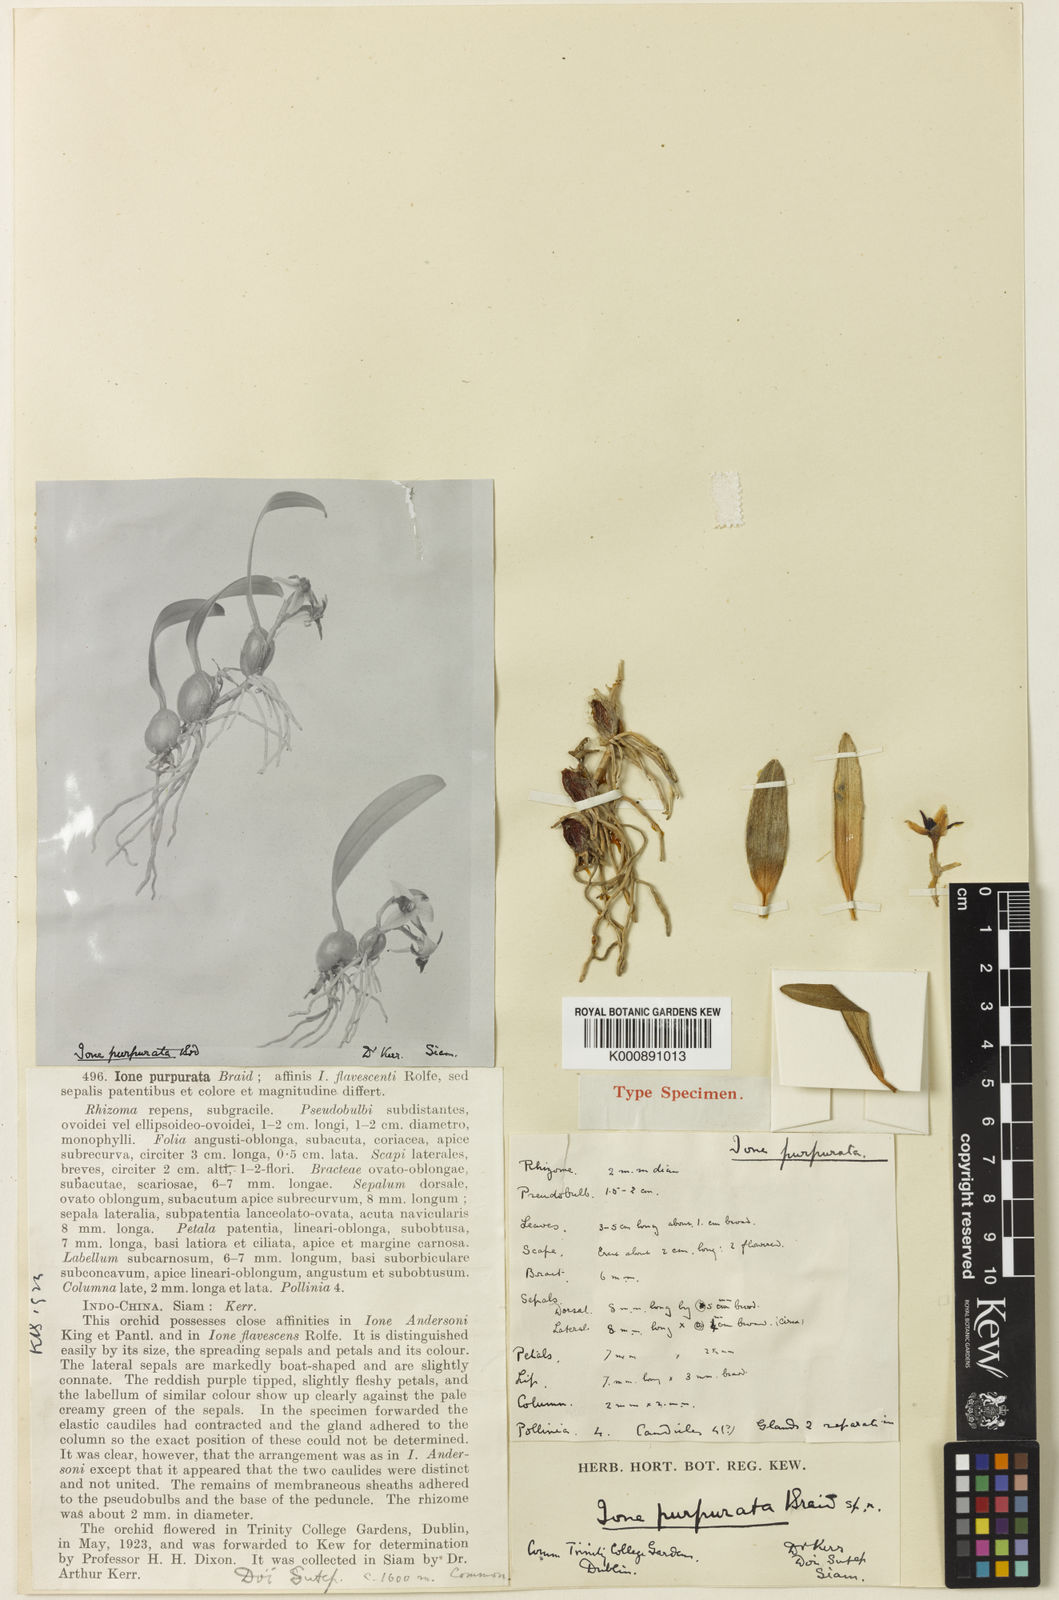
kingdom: Plantae
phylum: Tracheophyta
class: Liliopsida
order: Asparagales
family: Orchidaceae
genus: Bulbophyllum
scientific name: Bulbophyllum bifurcatoflorens
